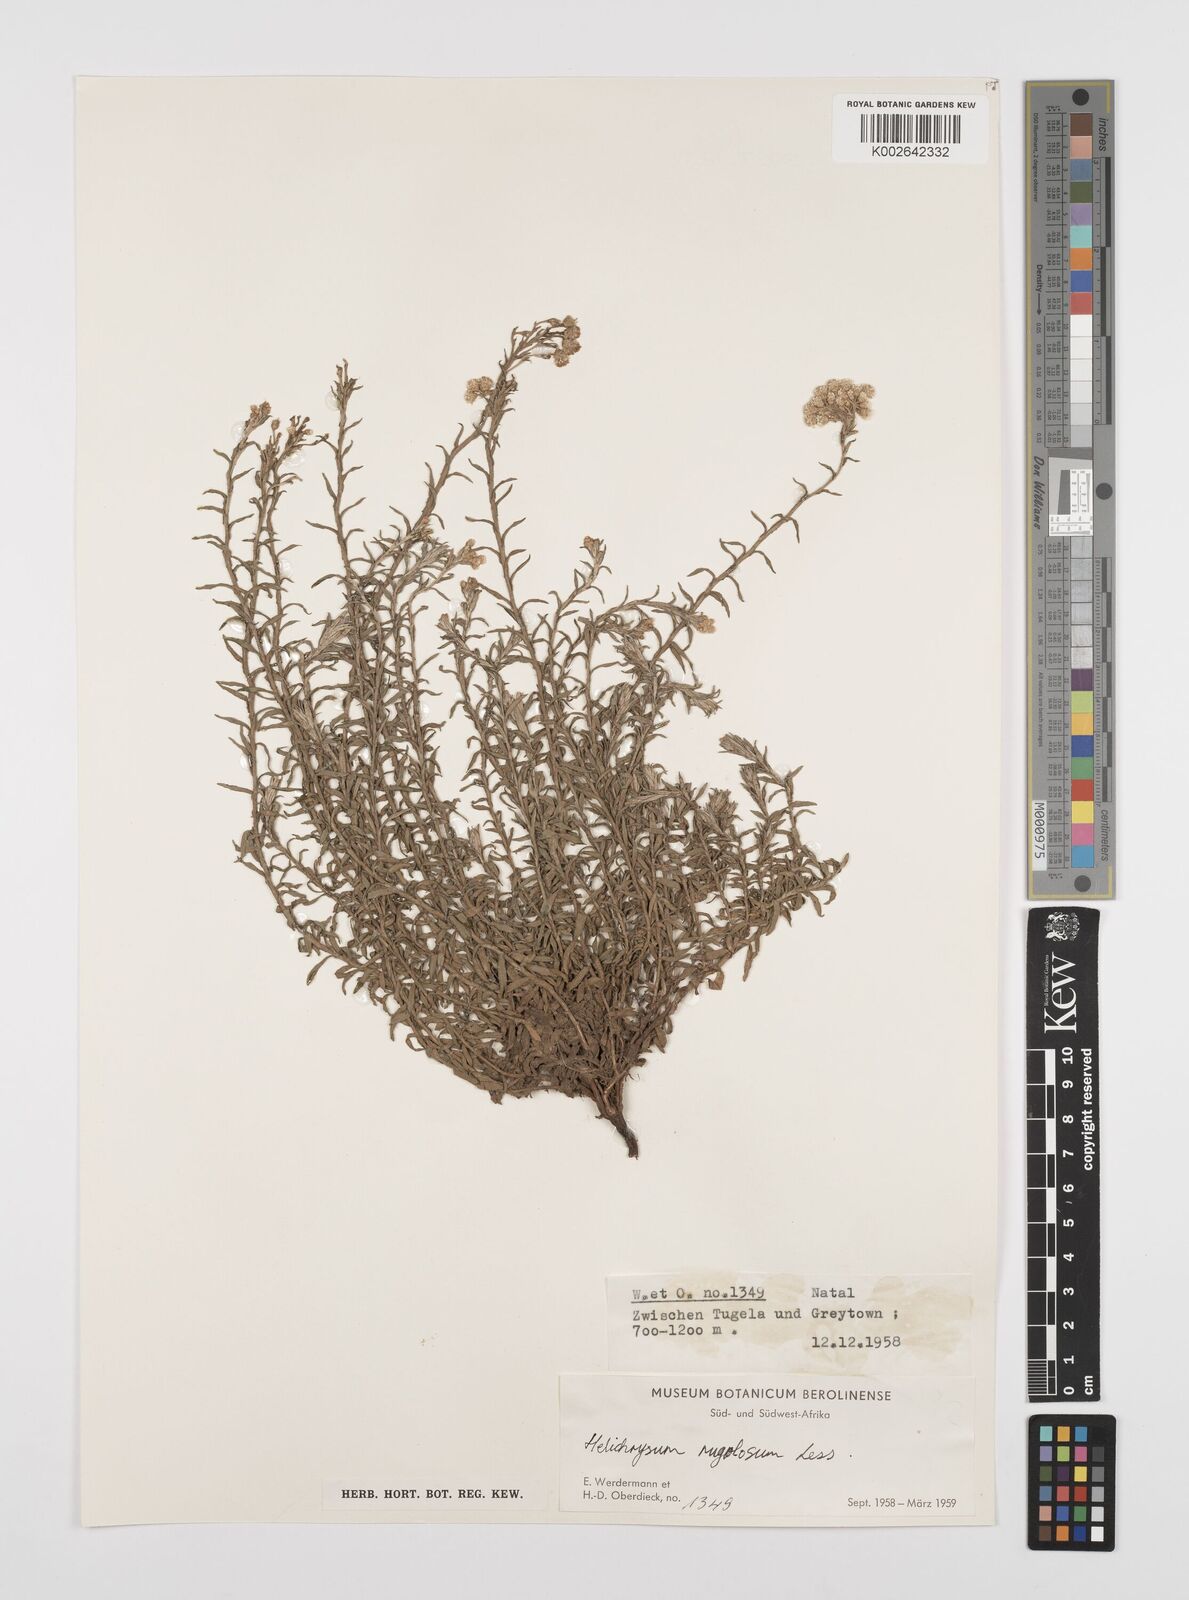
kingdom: Plantae
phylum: Tracheophyta
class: Magnoliopsida
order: Asterales
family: Asteraceae
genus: Helichrysum
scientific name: Helichrysum rugulosum
